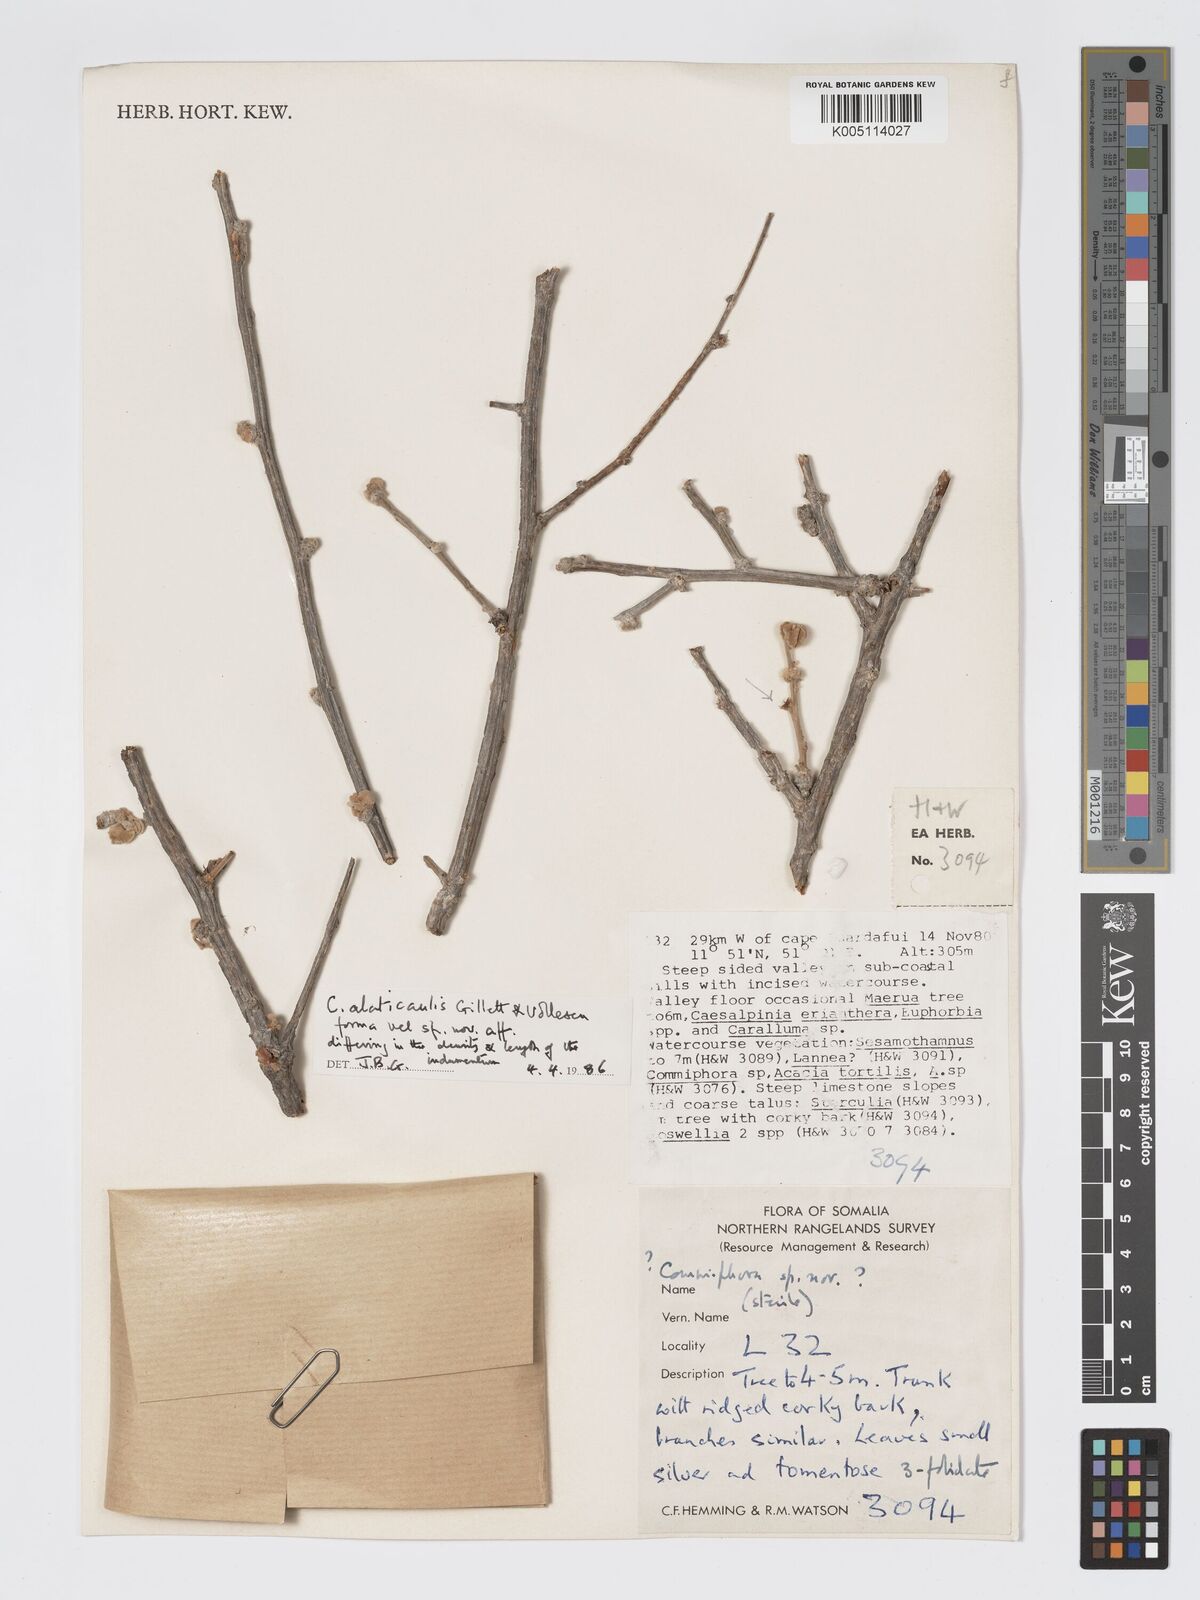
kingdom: Plantae
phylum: Tracheophyta
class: Magnoliopsida
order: Sapindales
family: Burseraceae
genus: Commiphora
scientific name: Commiphora alaticaulis
